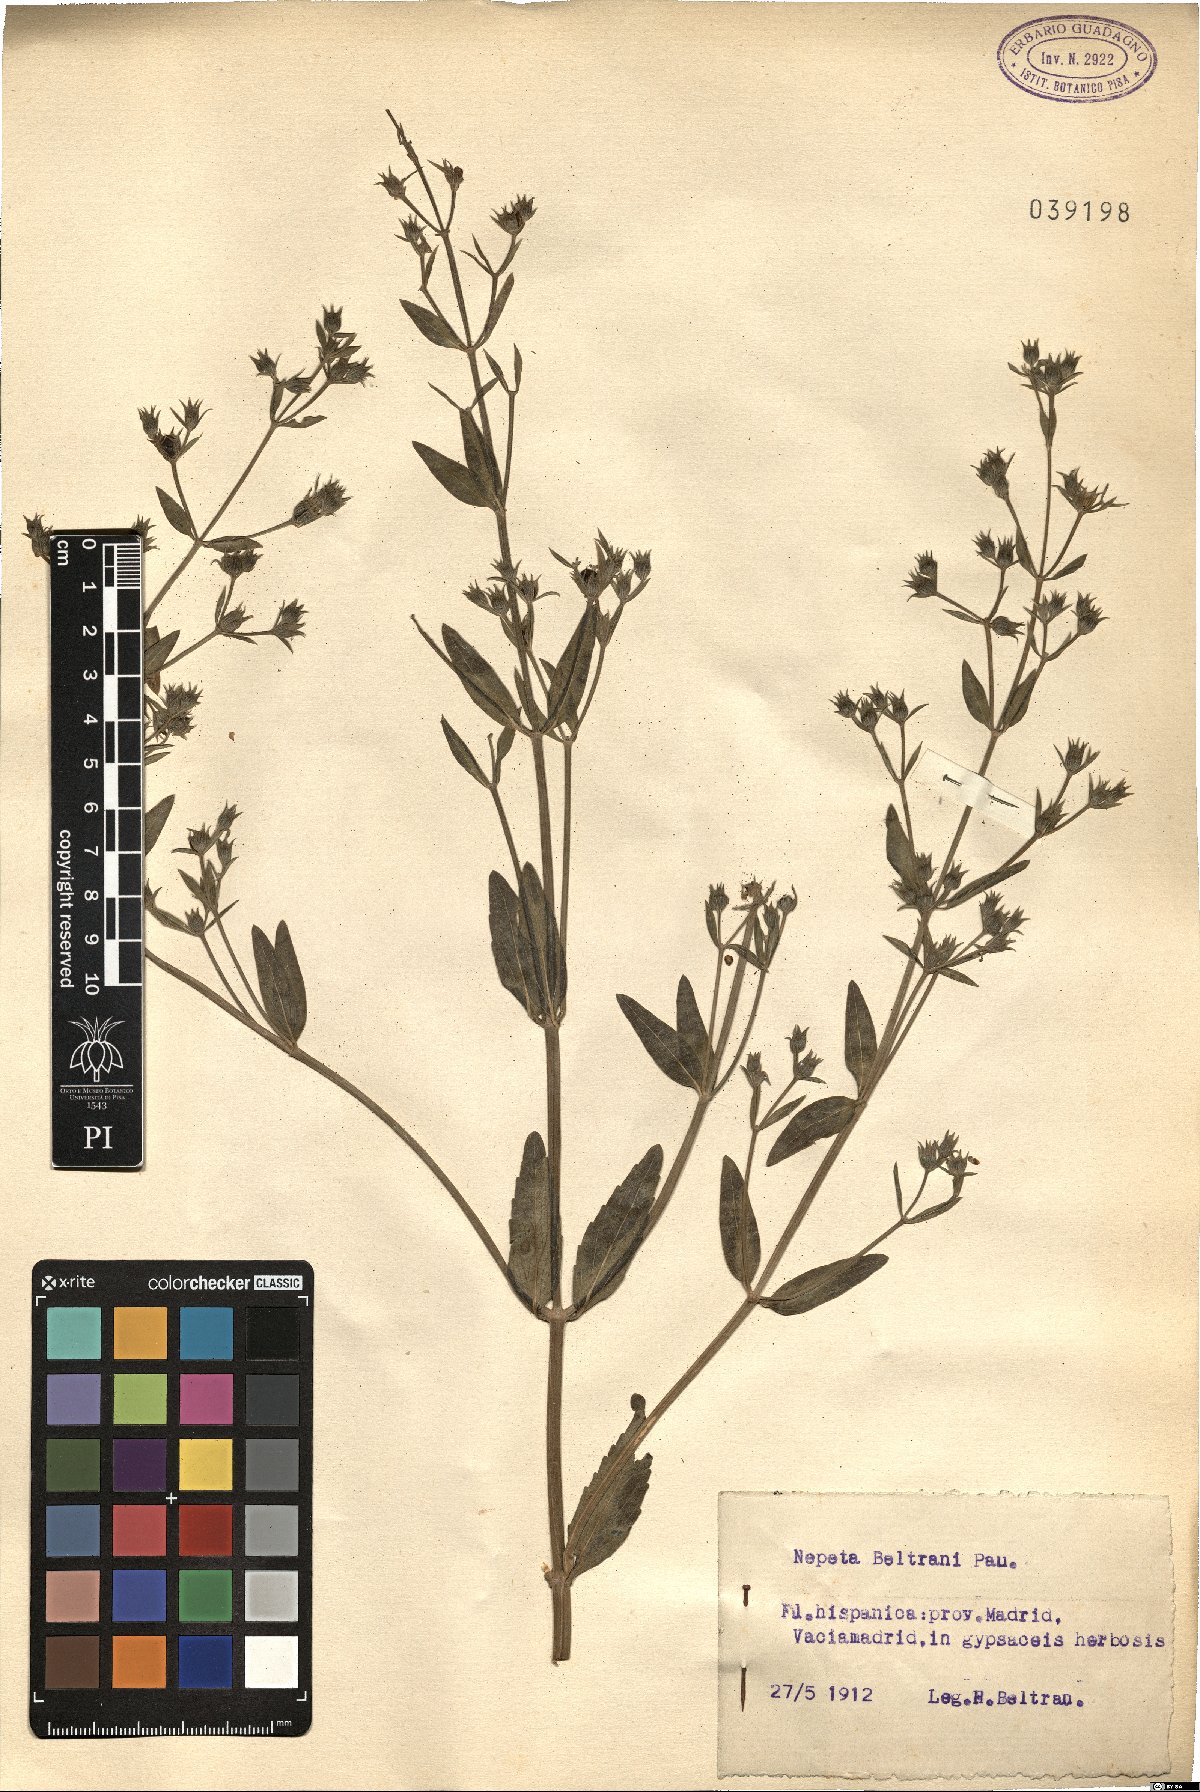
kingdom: Plantae
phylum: Tracheophyta
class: Magnoliopsida
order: Lamiales
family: Lamiaceae
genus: Nepeta
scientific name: Nepeta hispanica
